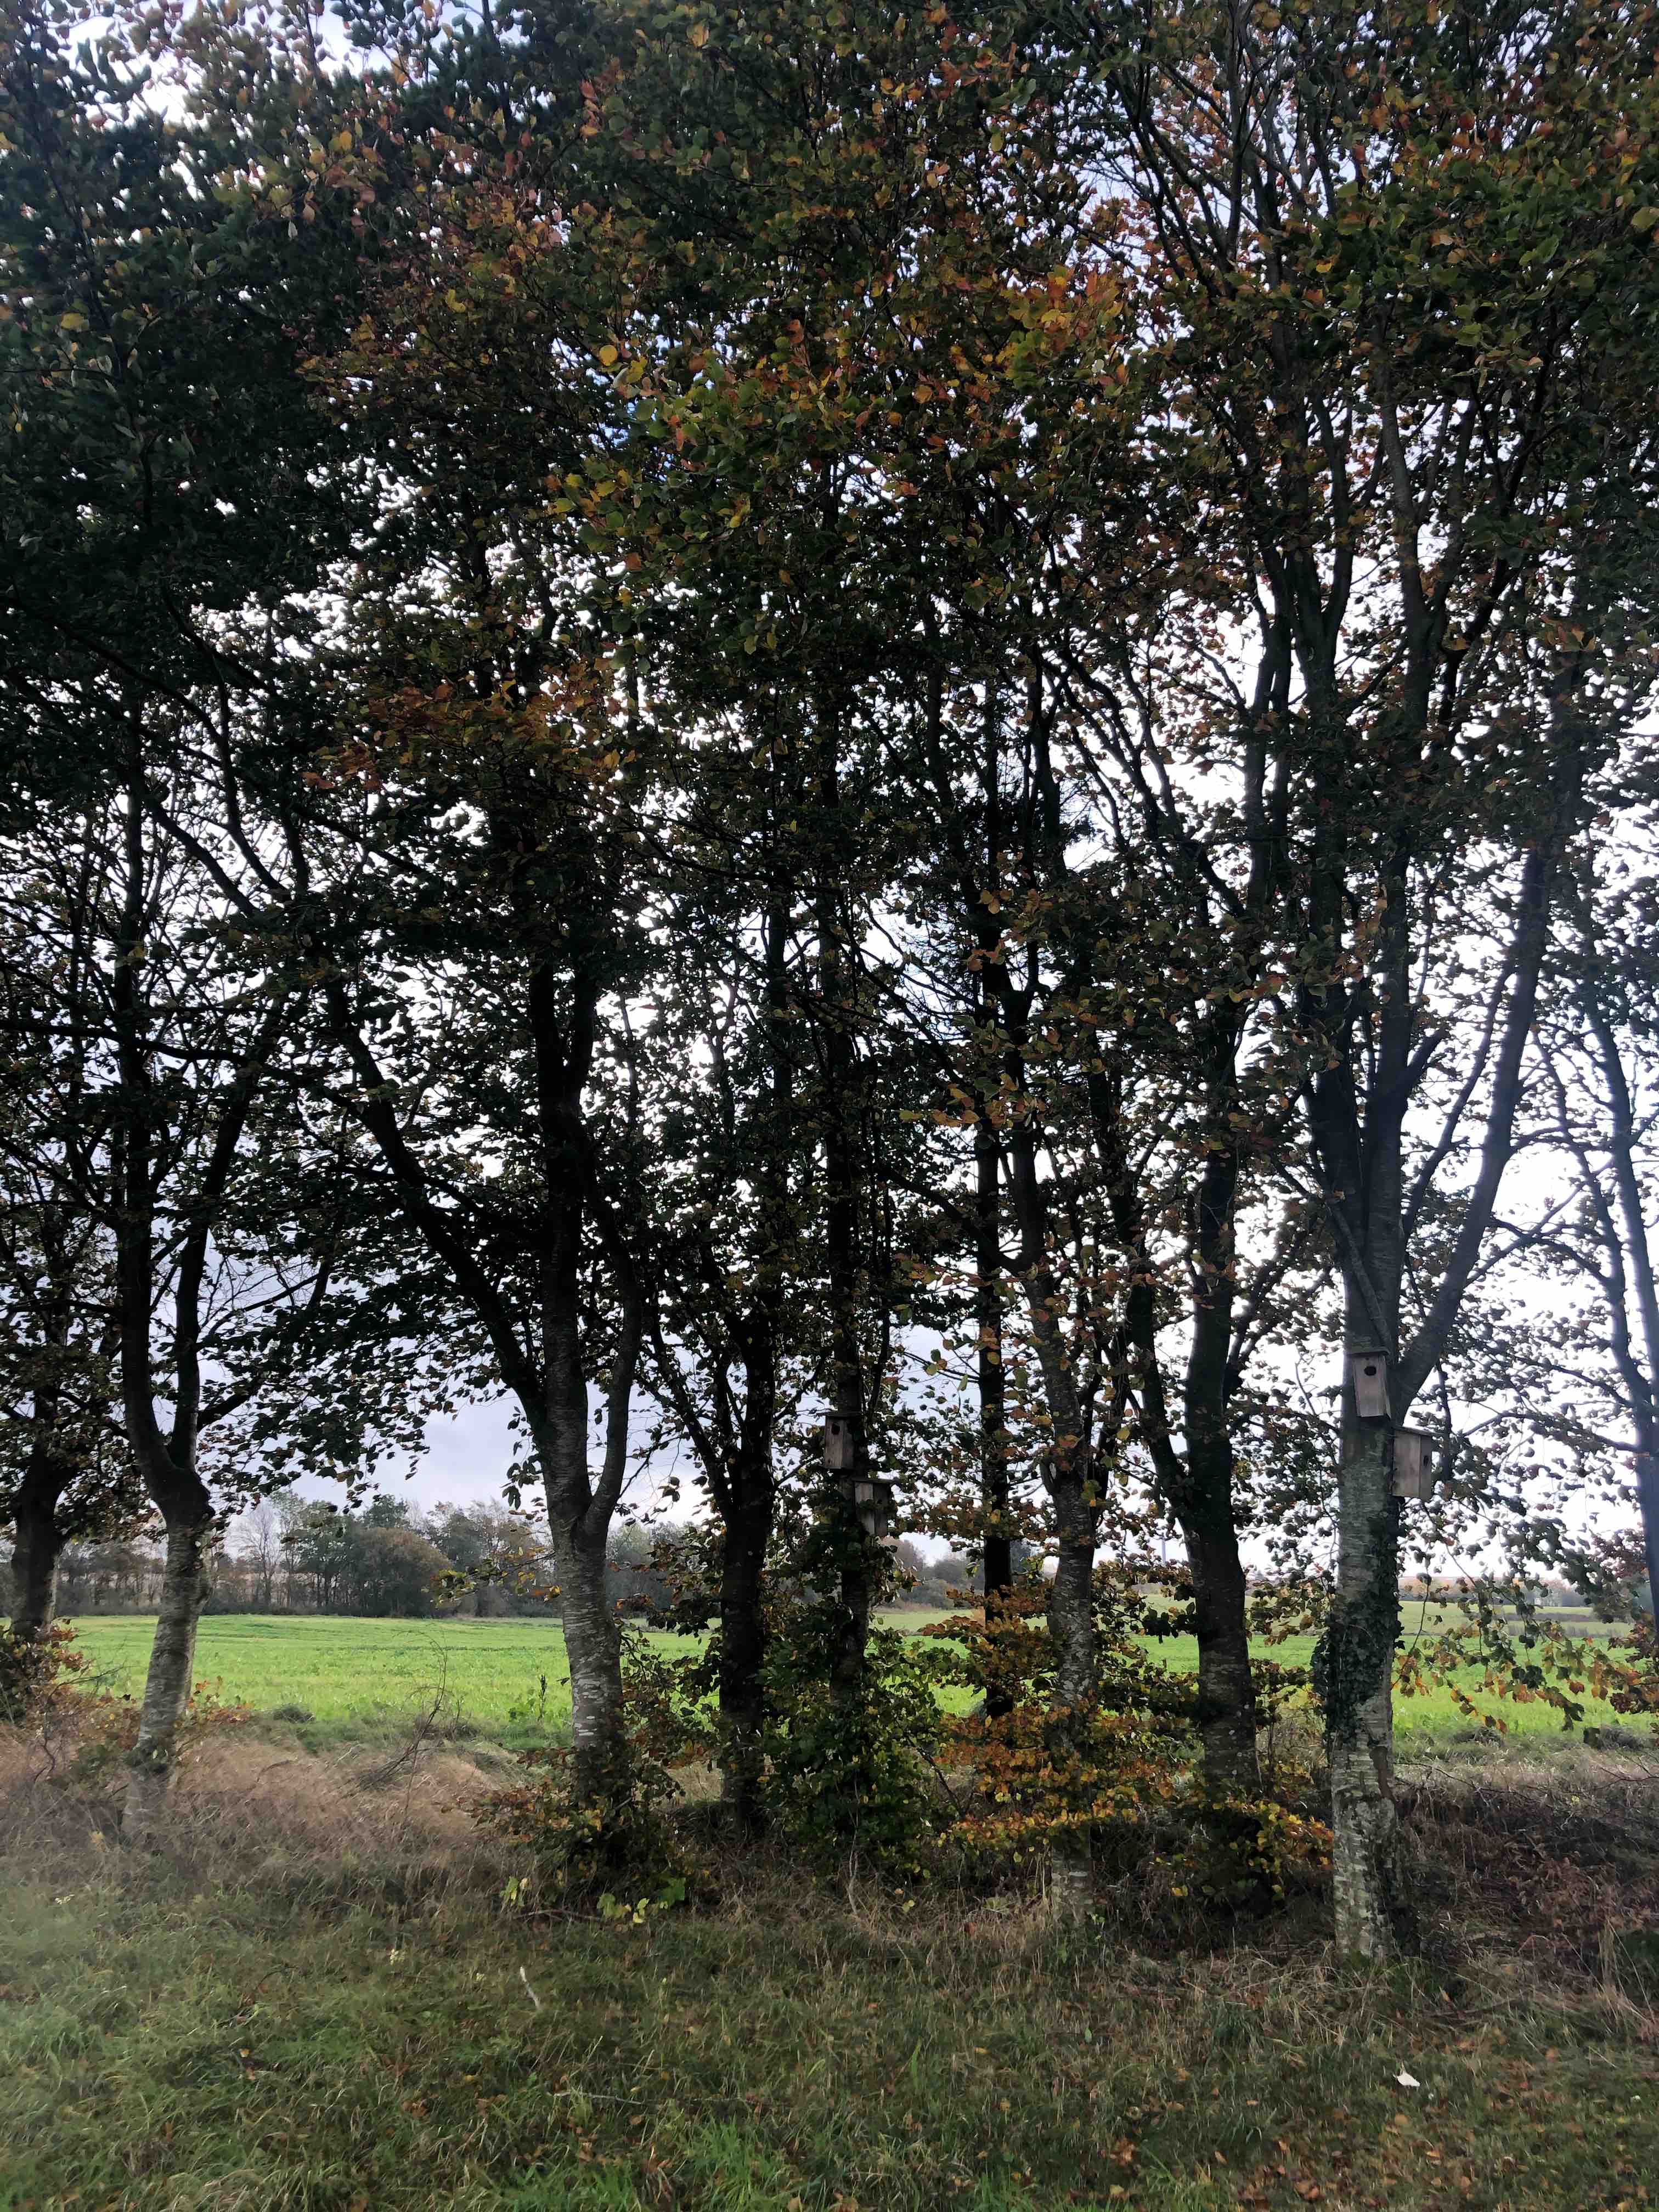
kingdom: Fungi
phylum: Basidiomycota
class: Agaricomycetes
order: Russulales
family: Russulaceae
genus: Lactarius
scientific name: Lactarius blennius
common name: dråbeplettet mælkehat
